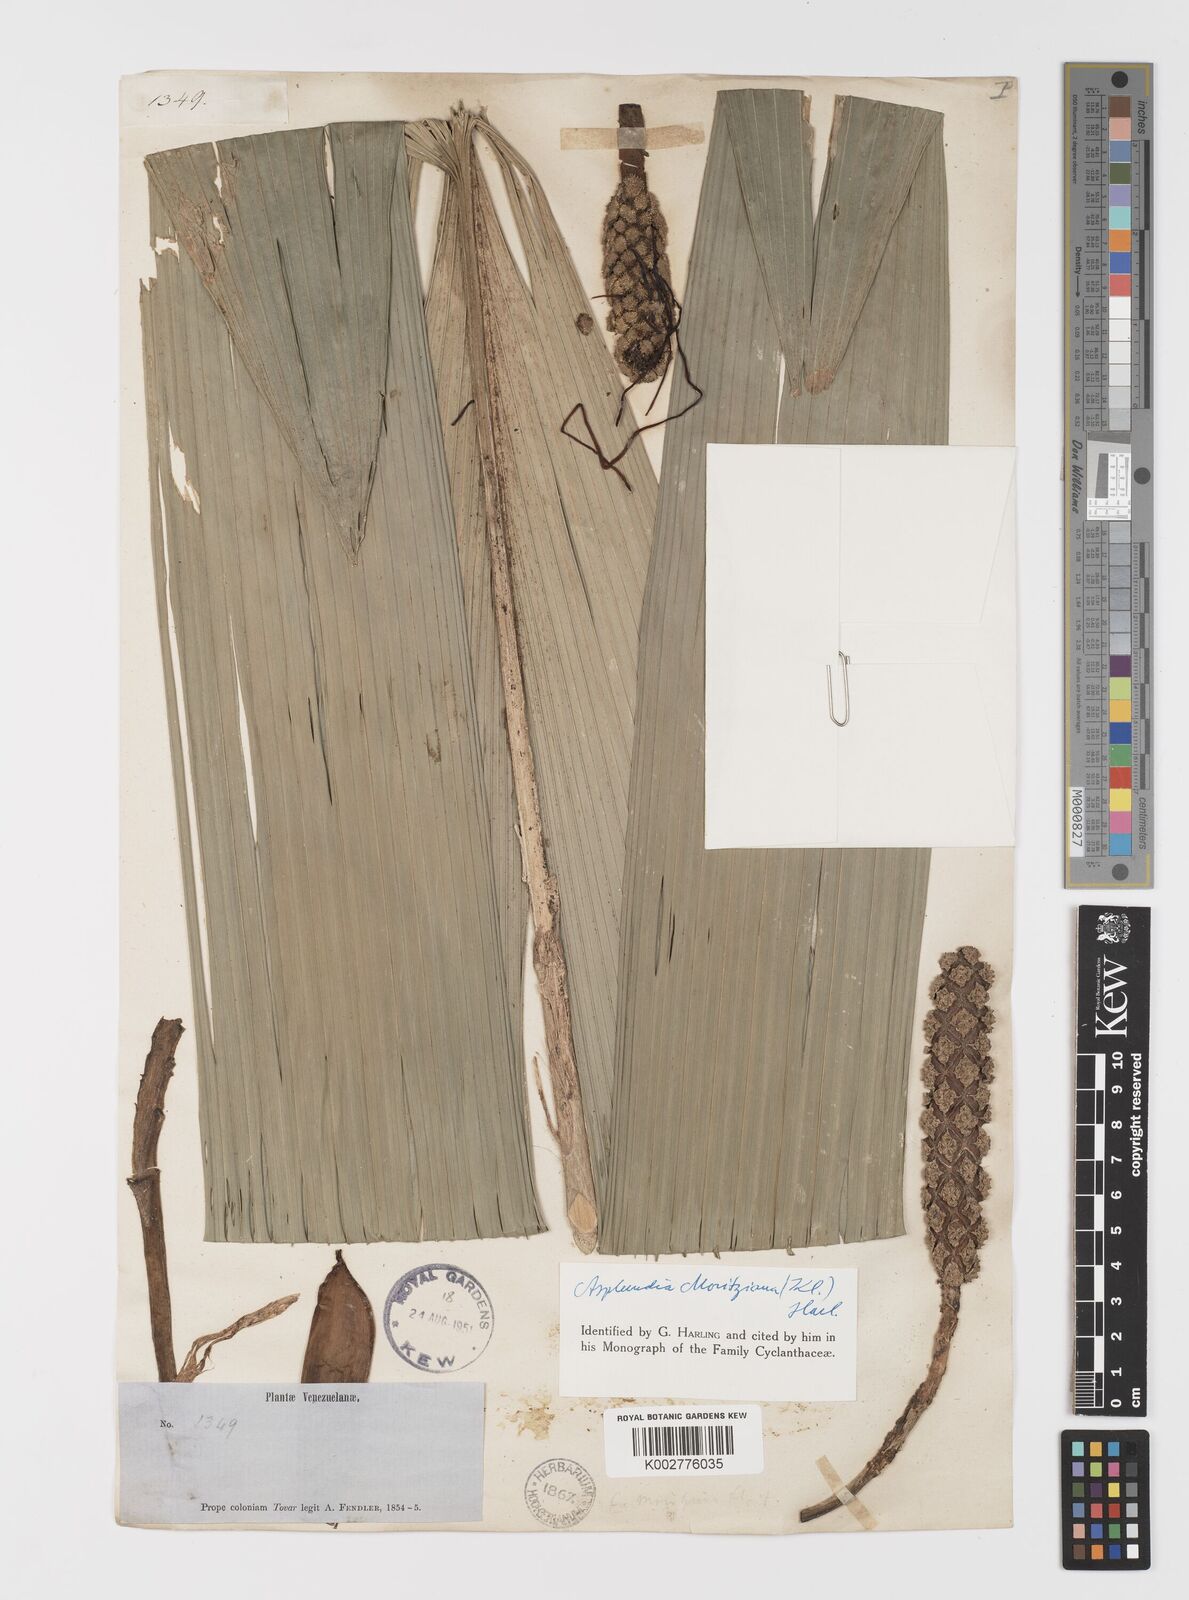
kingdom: Plantae
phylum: Tracheophyta
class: Liliopsida
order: Pandanales
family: Cyclanthaceae
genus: Asplundia
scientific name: Asplundia moritziana
